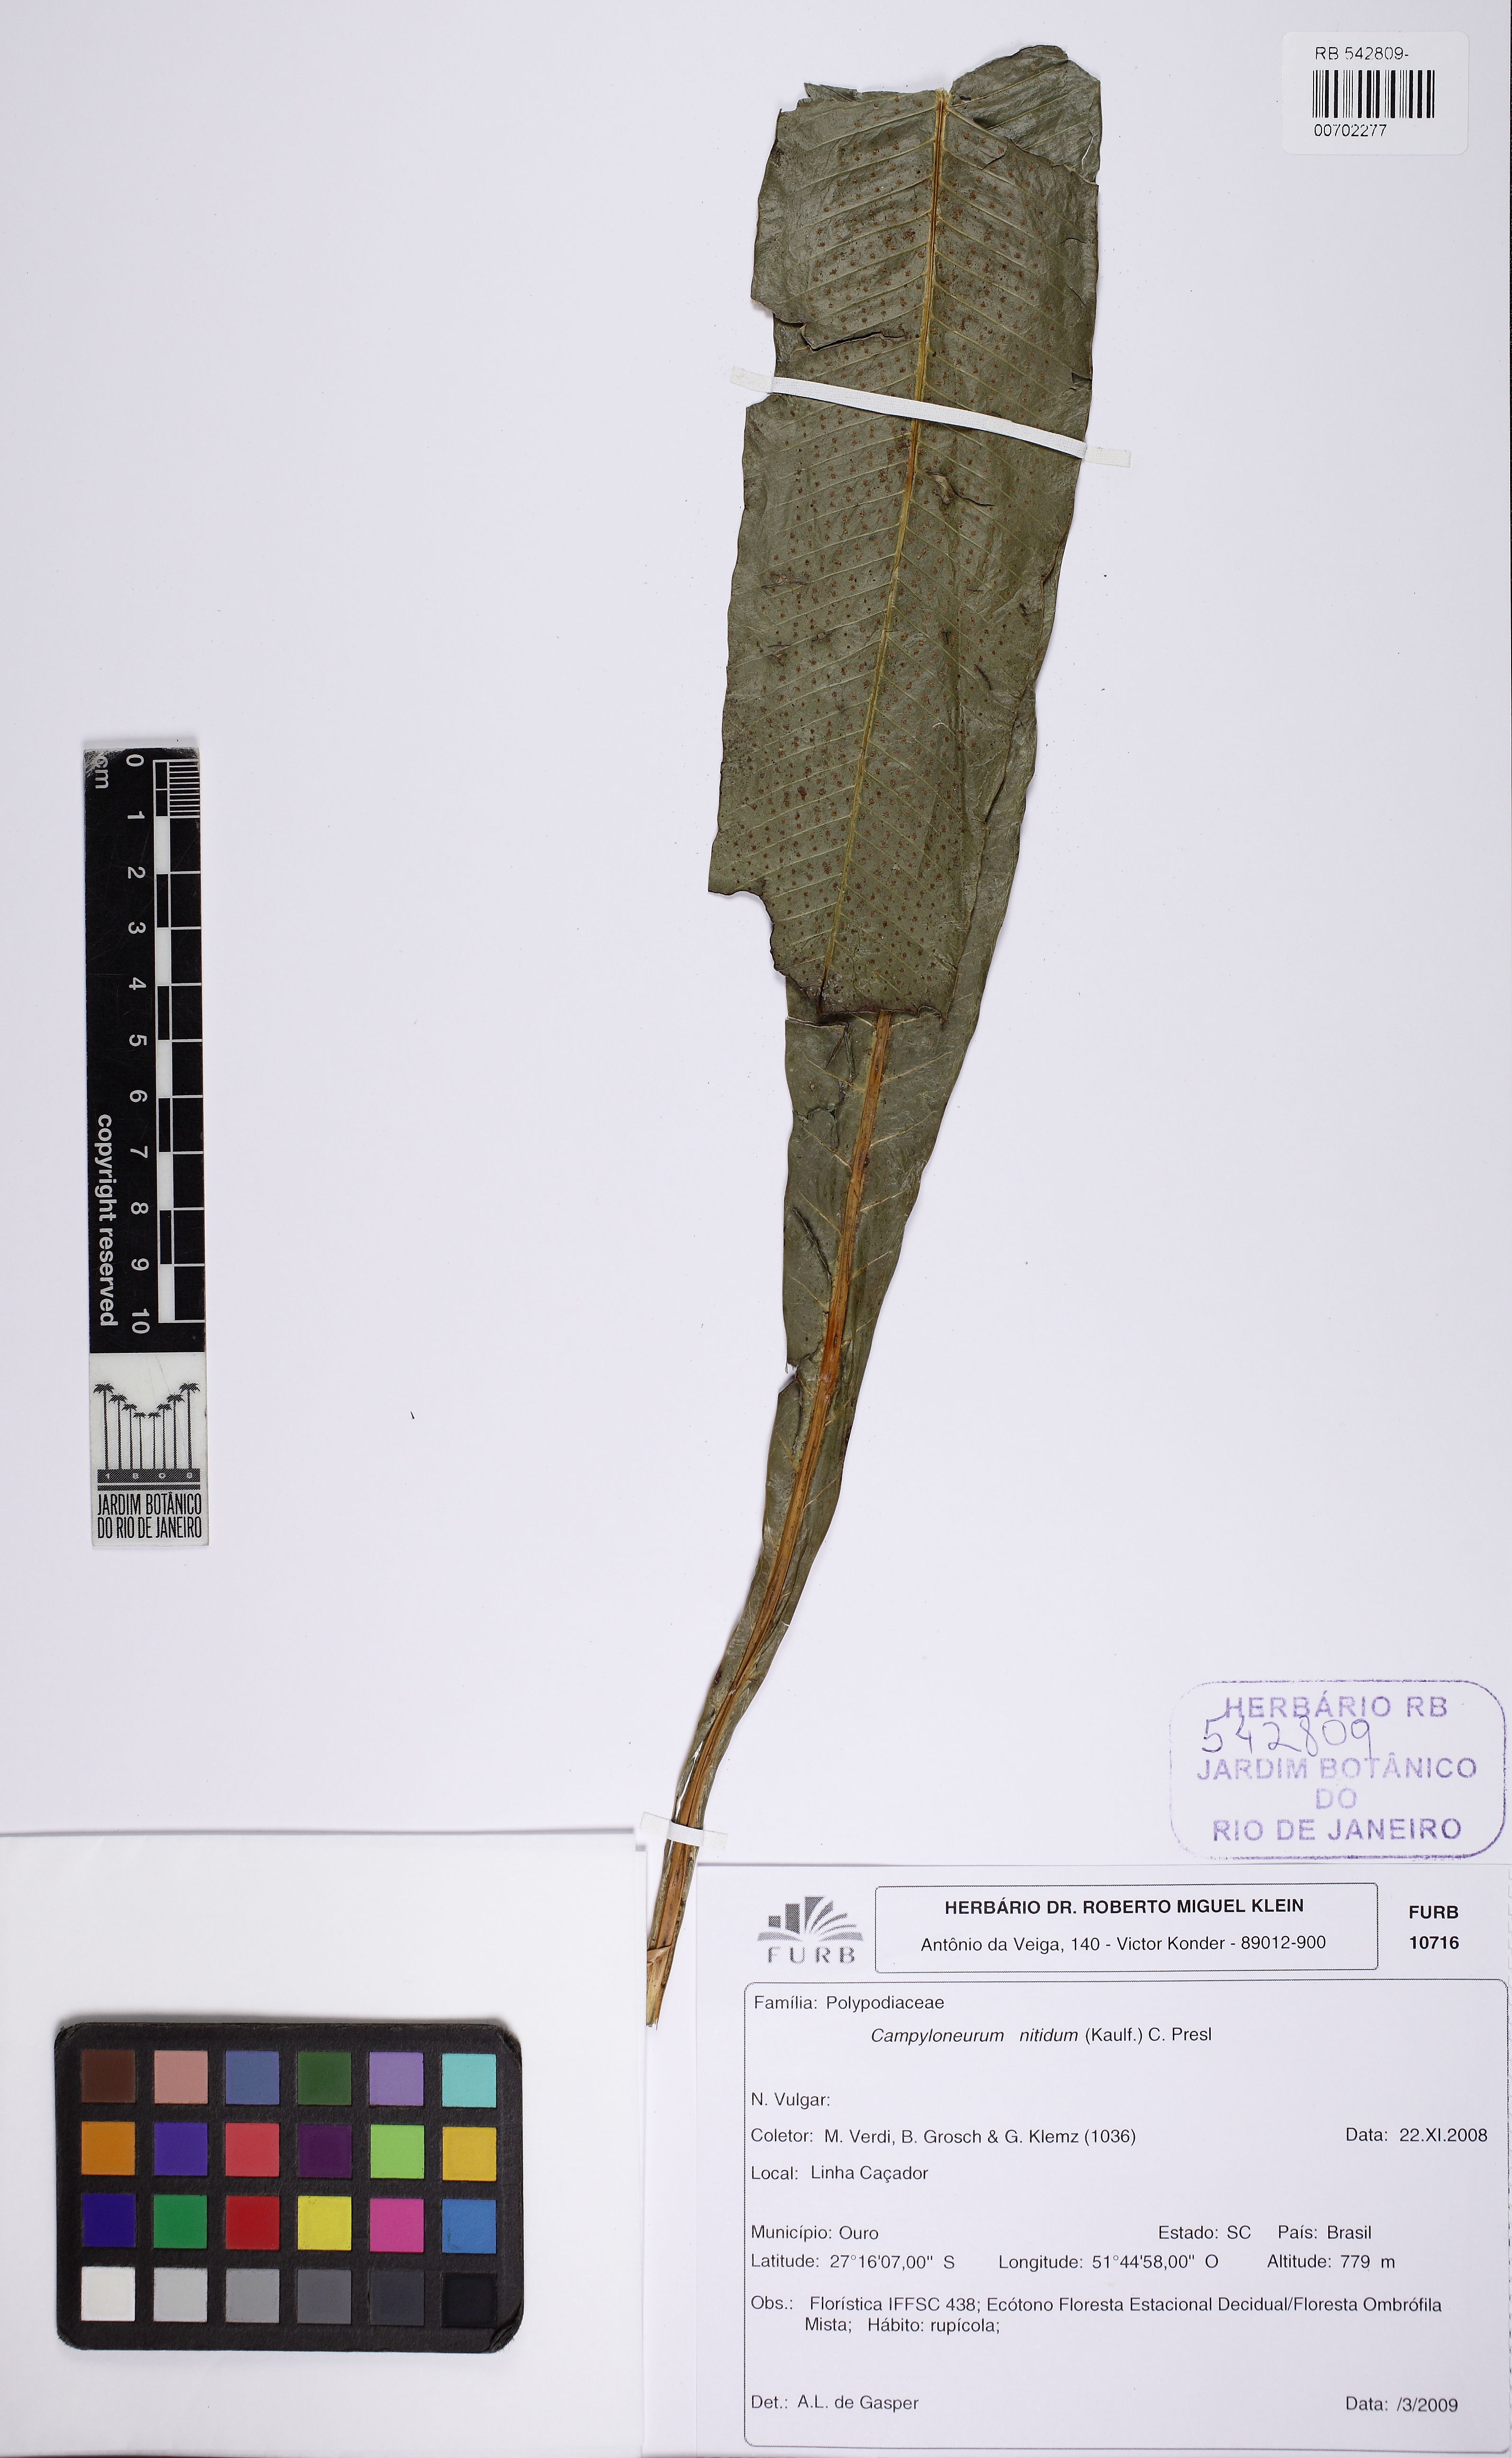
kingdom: Plantae
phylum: Tracheophyta
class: Polypodiopsida
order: Polypodiales
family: Polypodiaceae
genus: Campyloneurum
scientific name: Campyloneurum nitidum
